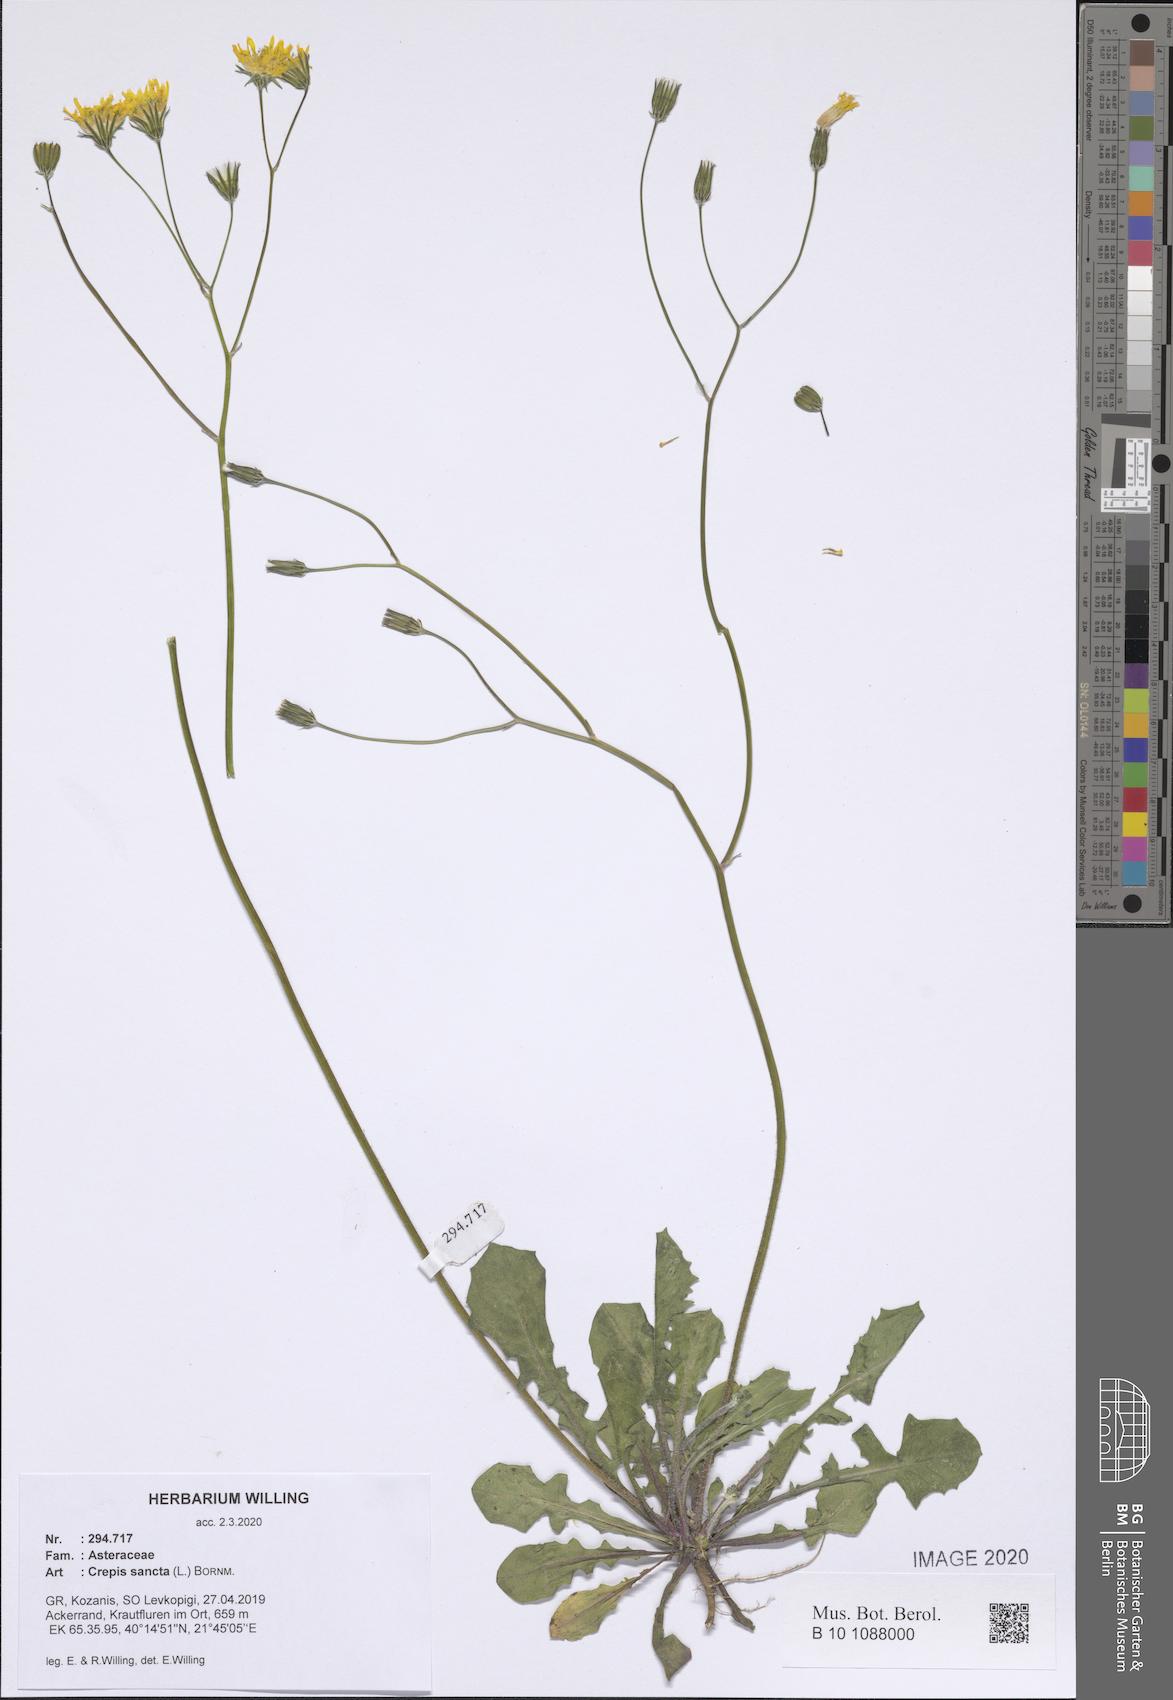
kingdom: Plantae
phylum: Tracheophyta
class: Magnoliopsida
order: Asterales
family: Asteraceae
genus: Crepis
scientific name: Crepis sancta
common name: Hawk's-beard
